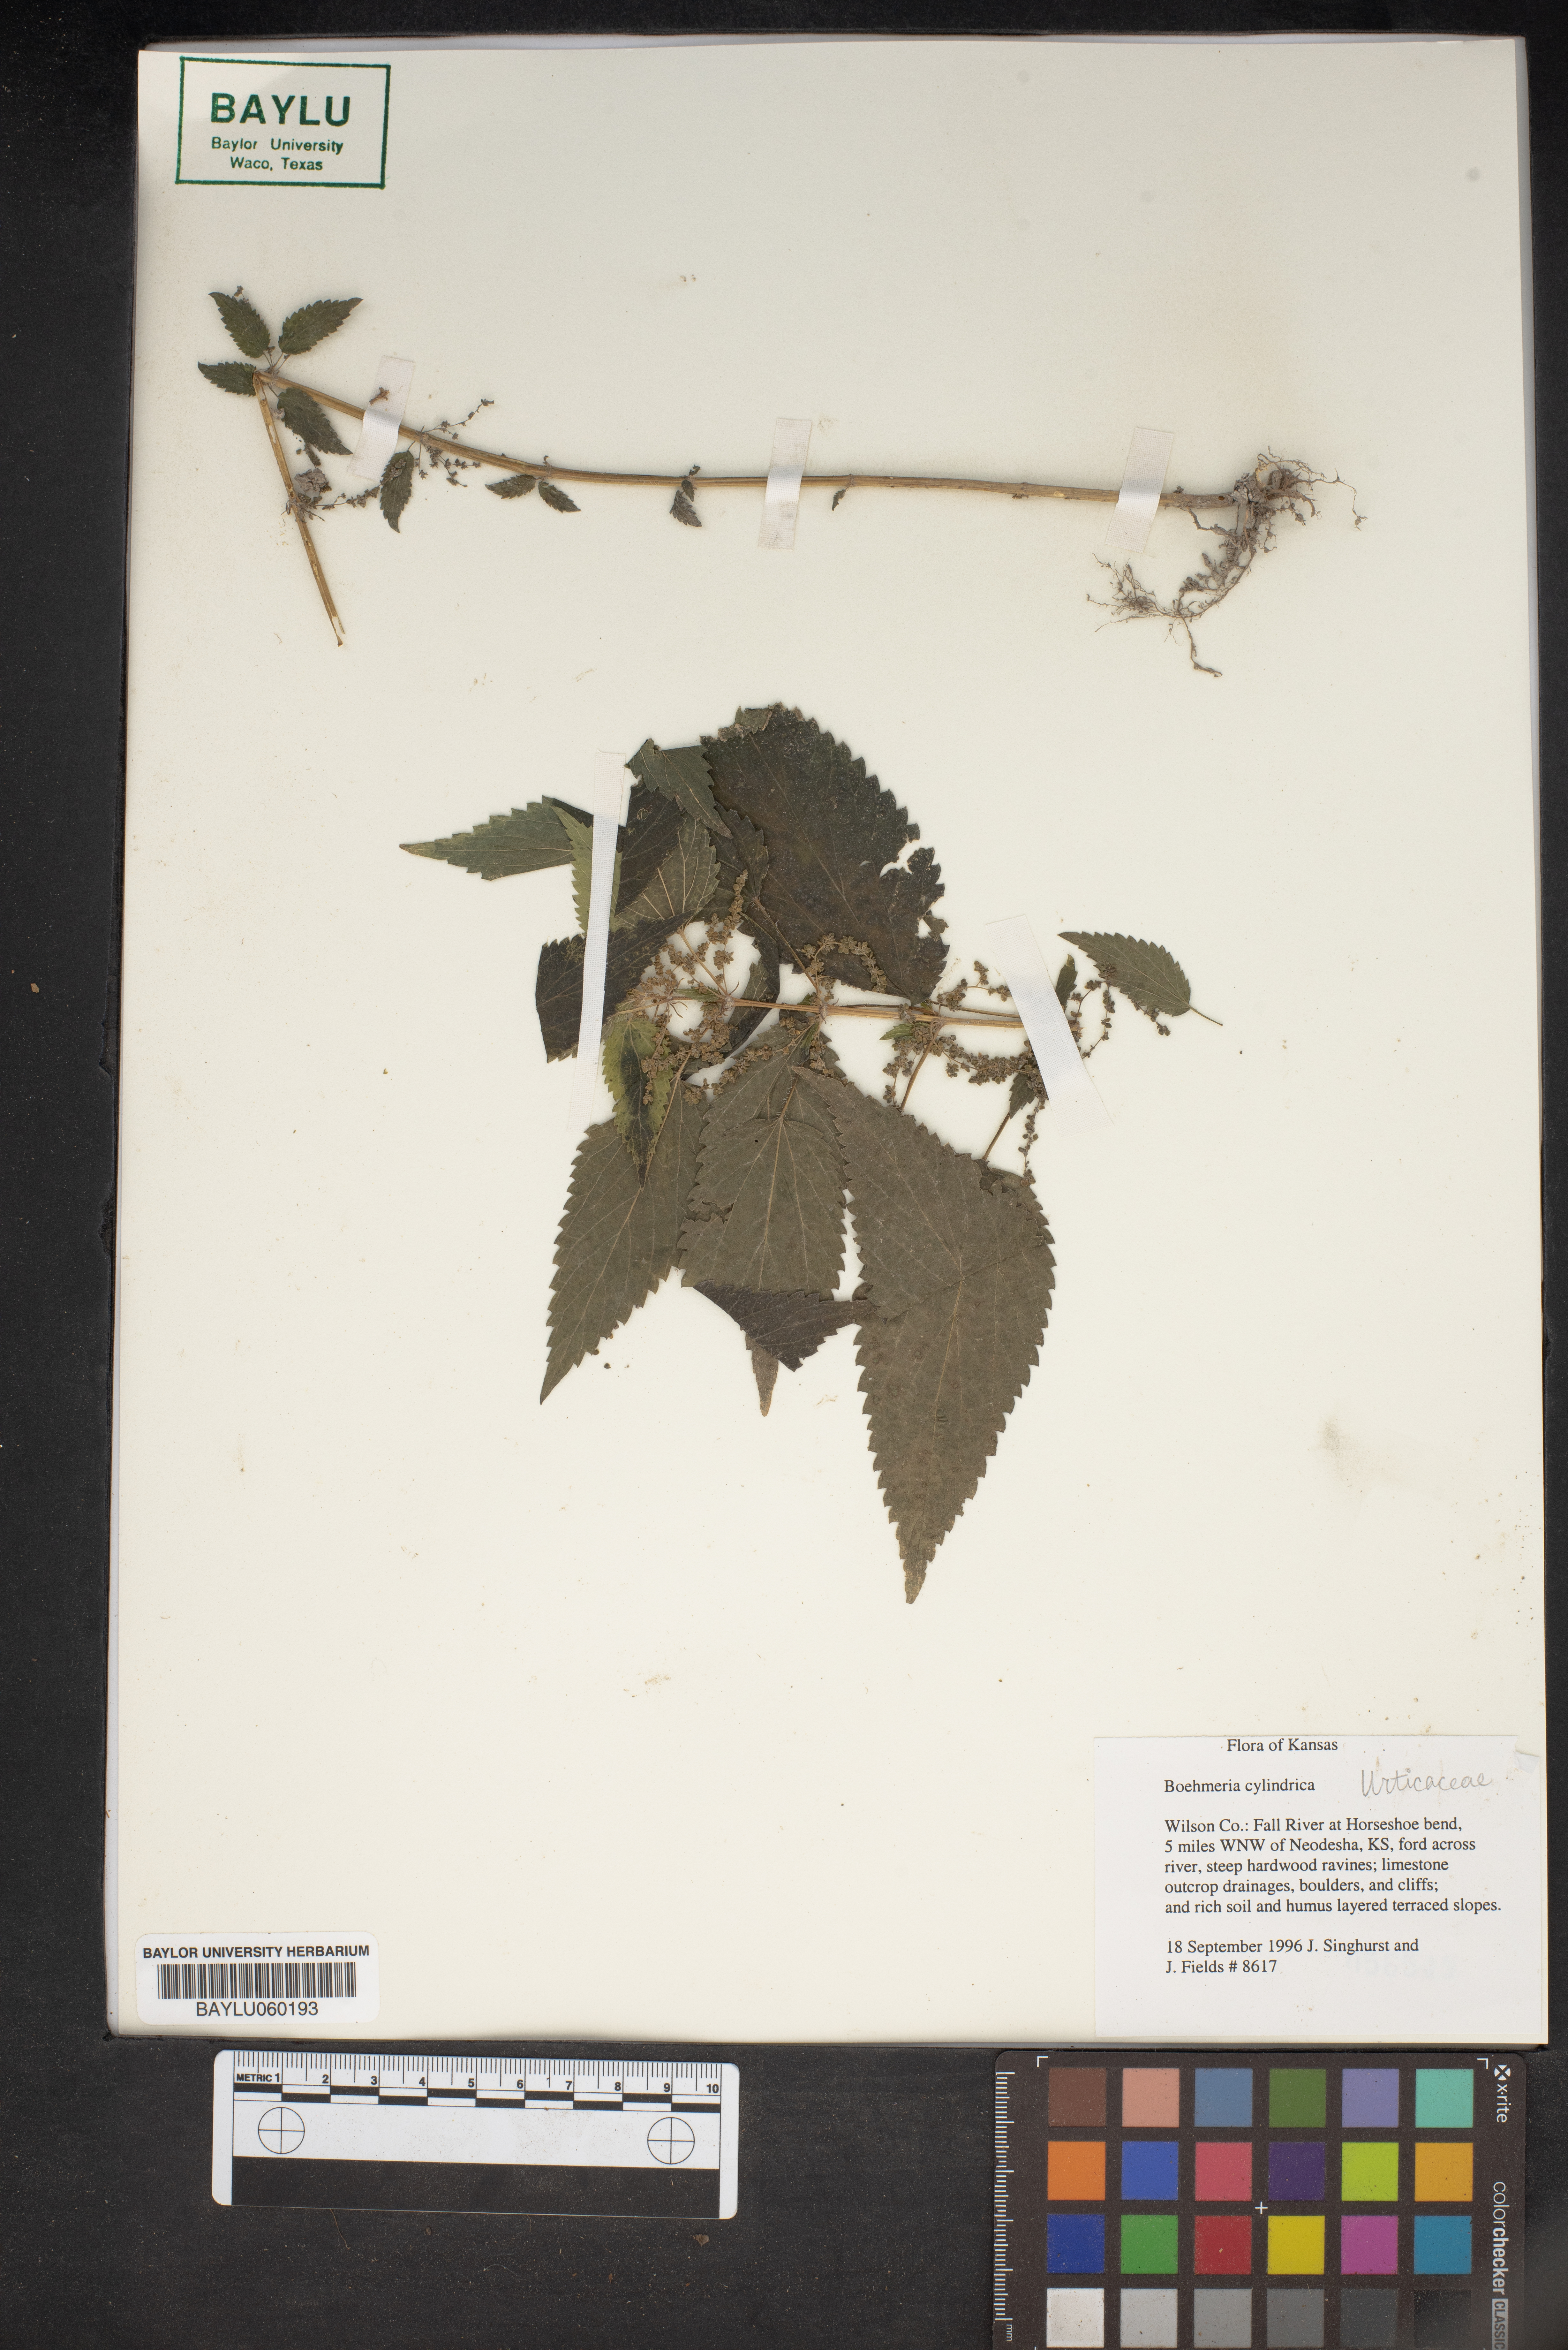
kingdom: Plantae
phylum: Tracheophyta
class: Magnoliopsida
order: Rosales
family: Urticaceae
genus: Boehmeria
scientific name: Boehmeria cylindrica
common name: Bog-hemp
